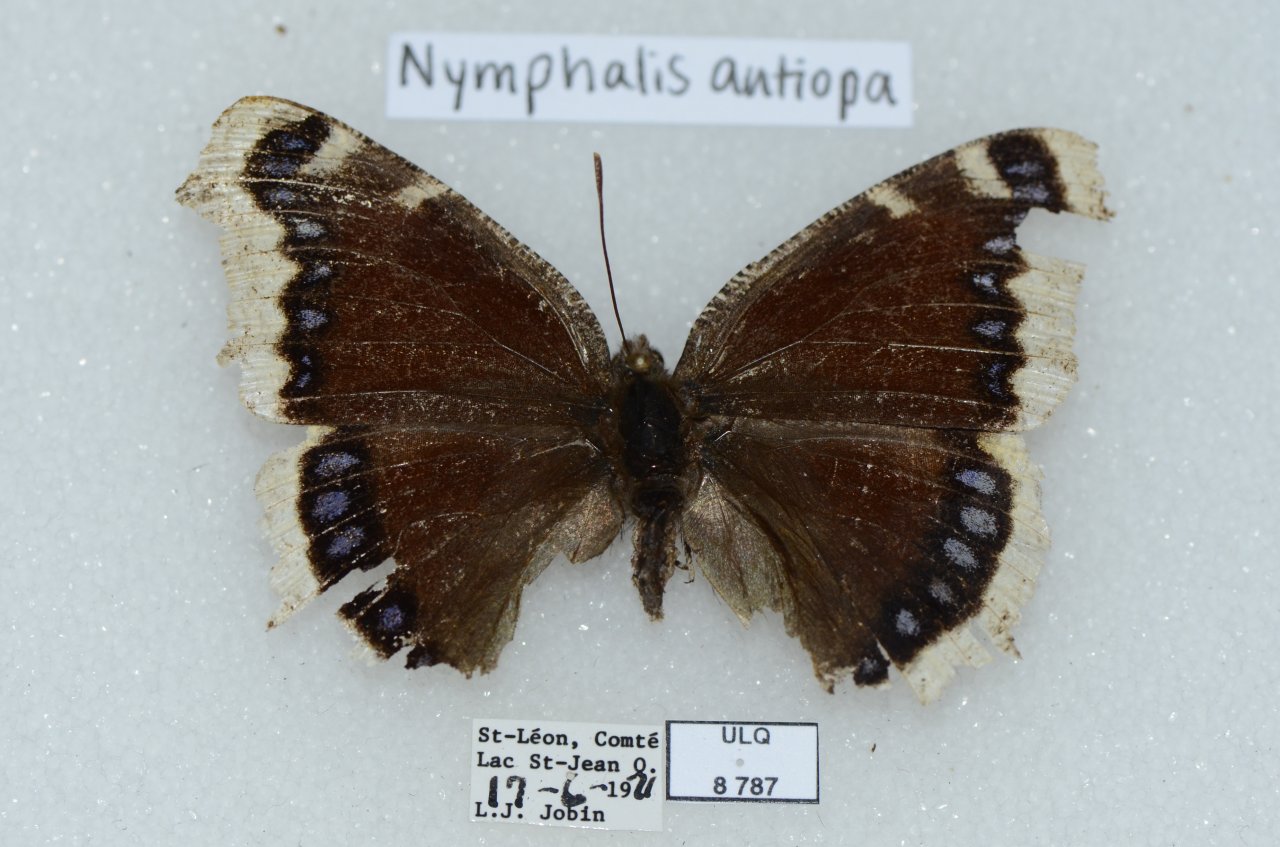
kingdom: Animalia
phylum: Arthropoda
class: Insecta
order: Lepidoptera
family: Nymphalidae
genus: Nymphalis
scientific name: Nymphalis antiopa
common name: Mourning Cloak
